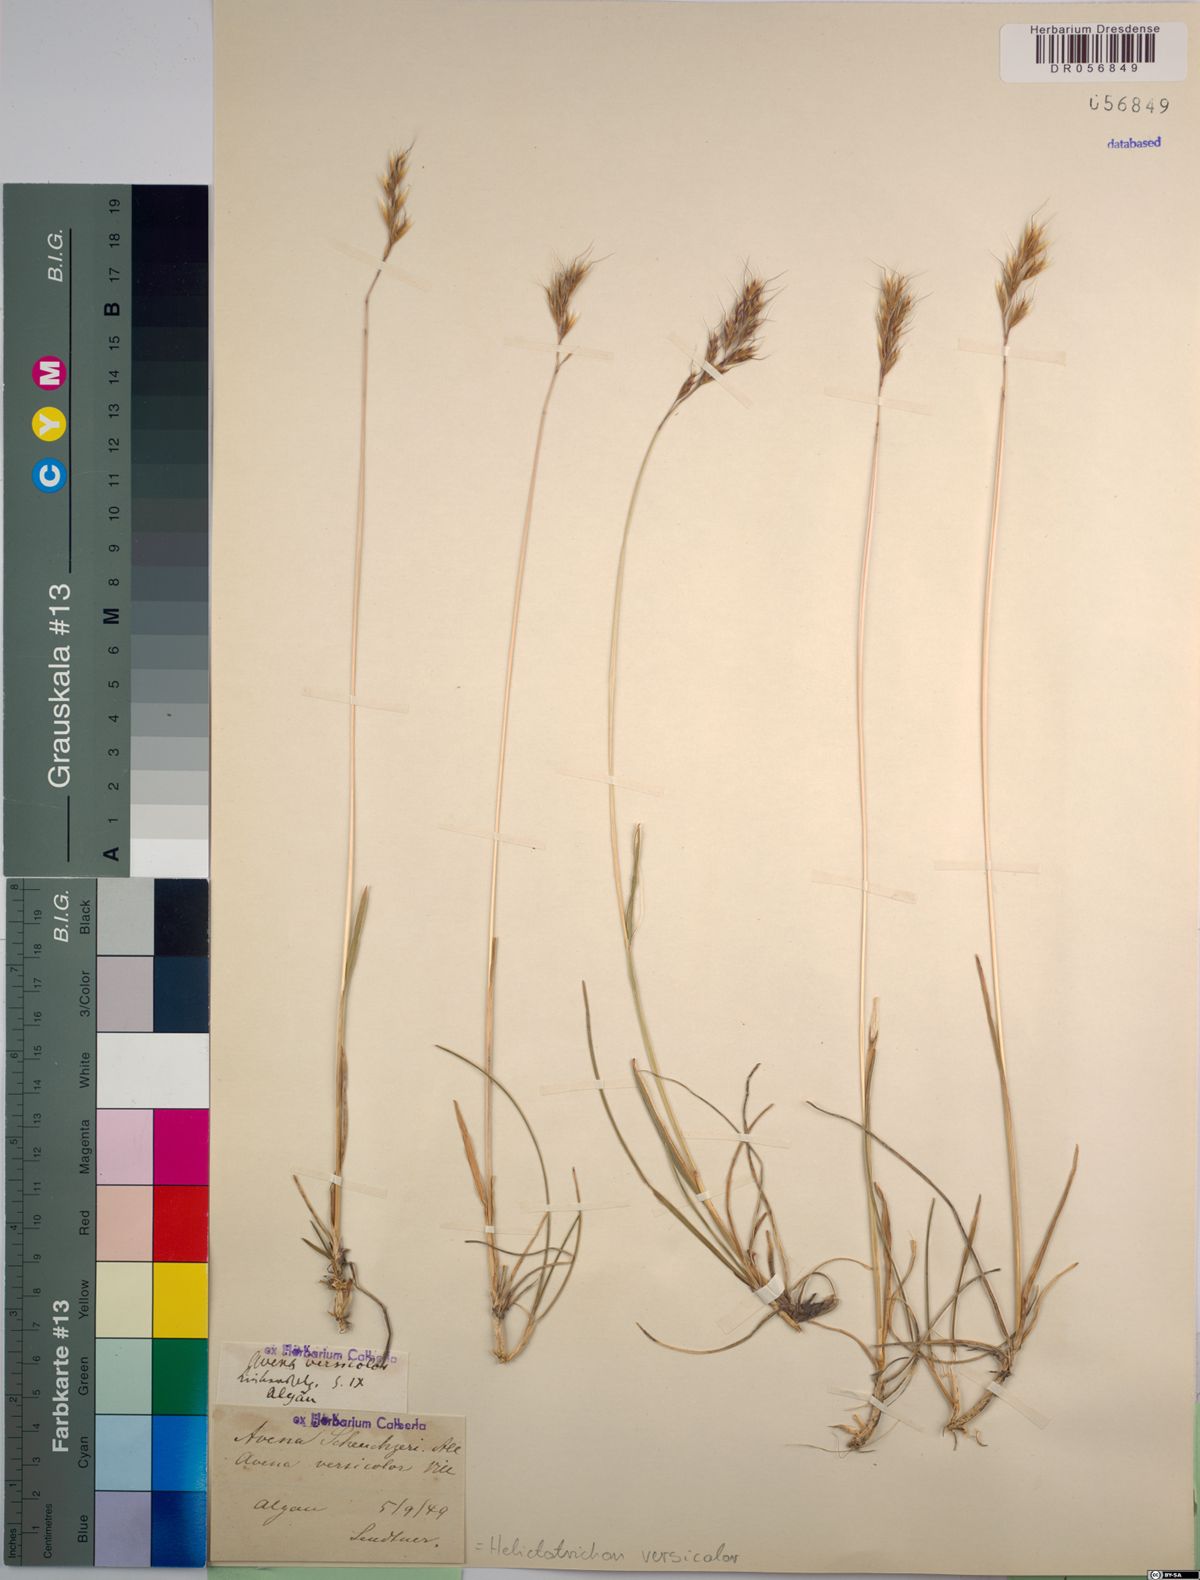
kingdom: Plantae
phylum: Tracheophyta
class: Liliopsida
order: Poales
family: Poaceae
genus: Helictochloa
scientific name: Helictochloa versicolor
